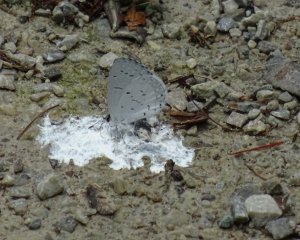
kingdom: Animalia
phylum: Arthropoda
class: Insecta
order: Lepidoptera
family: Lycaenidae
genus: Cyaniris
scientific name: Cyaniris neglecta
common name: Summer Azure
